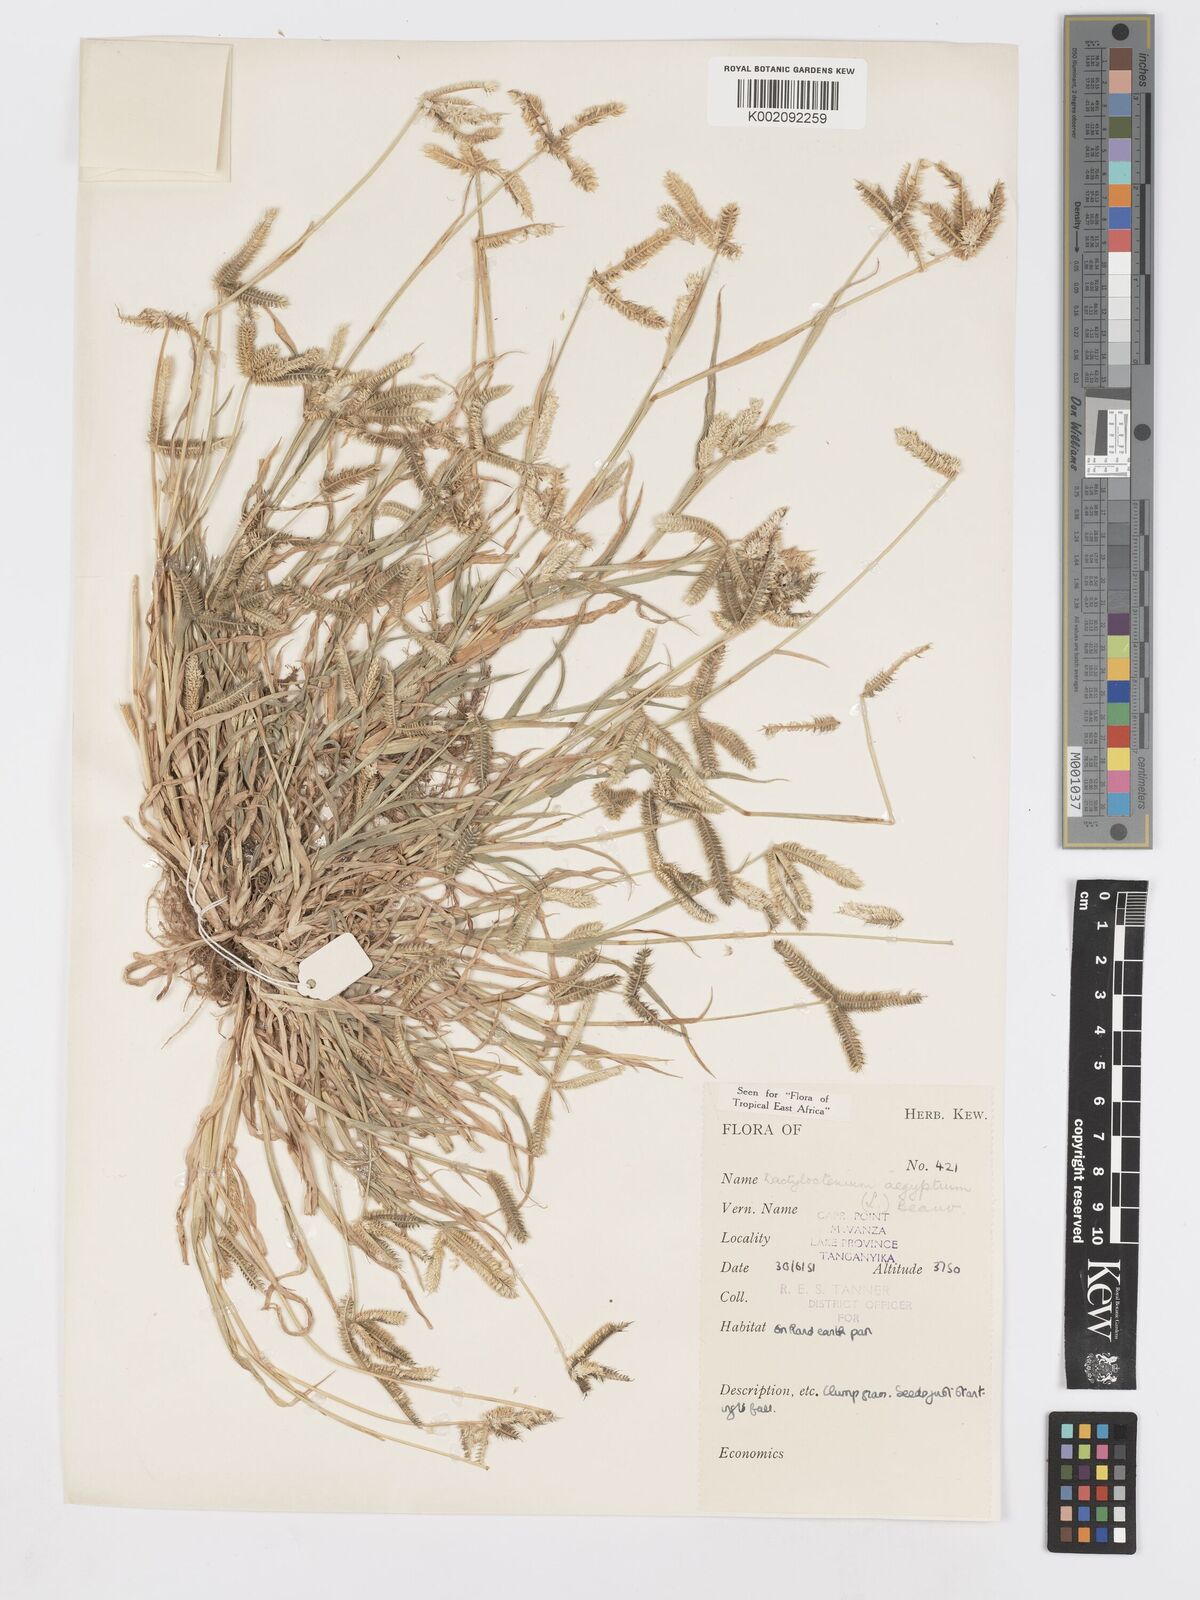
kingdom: Plantae
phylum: Tracheophyta
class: Liliopsida
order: Poales
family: Poaceae
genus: Dactyloctenium
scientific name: Dactyloctenium aegyptium
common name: Egyptian grass
